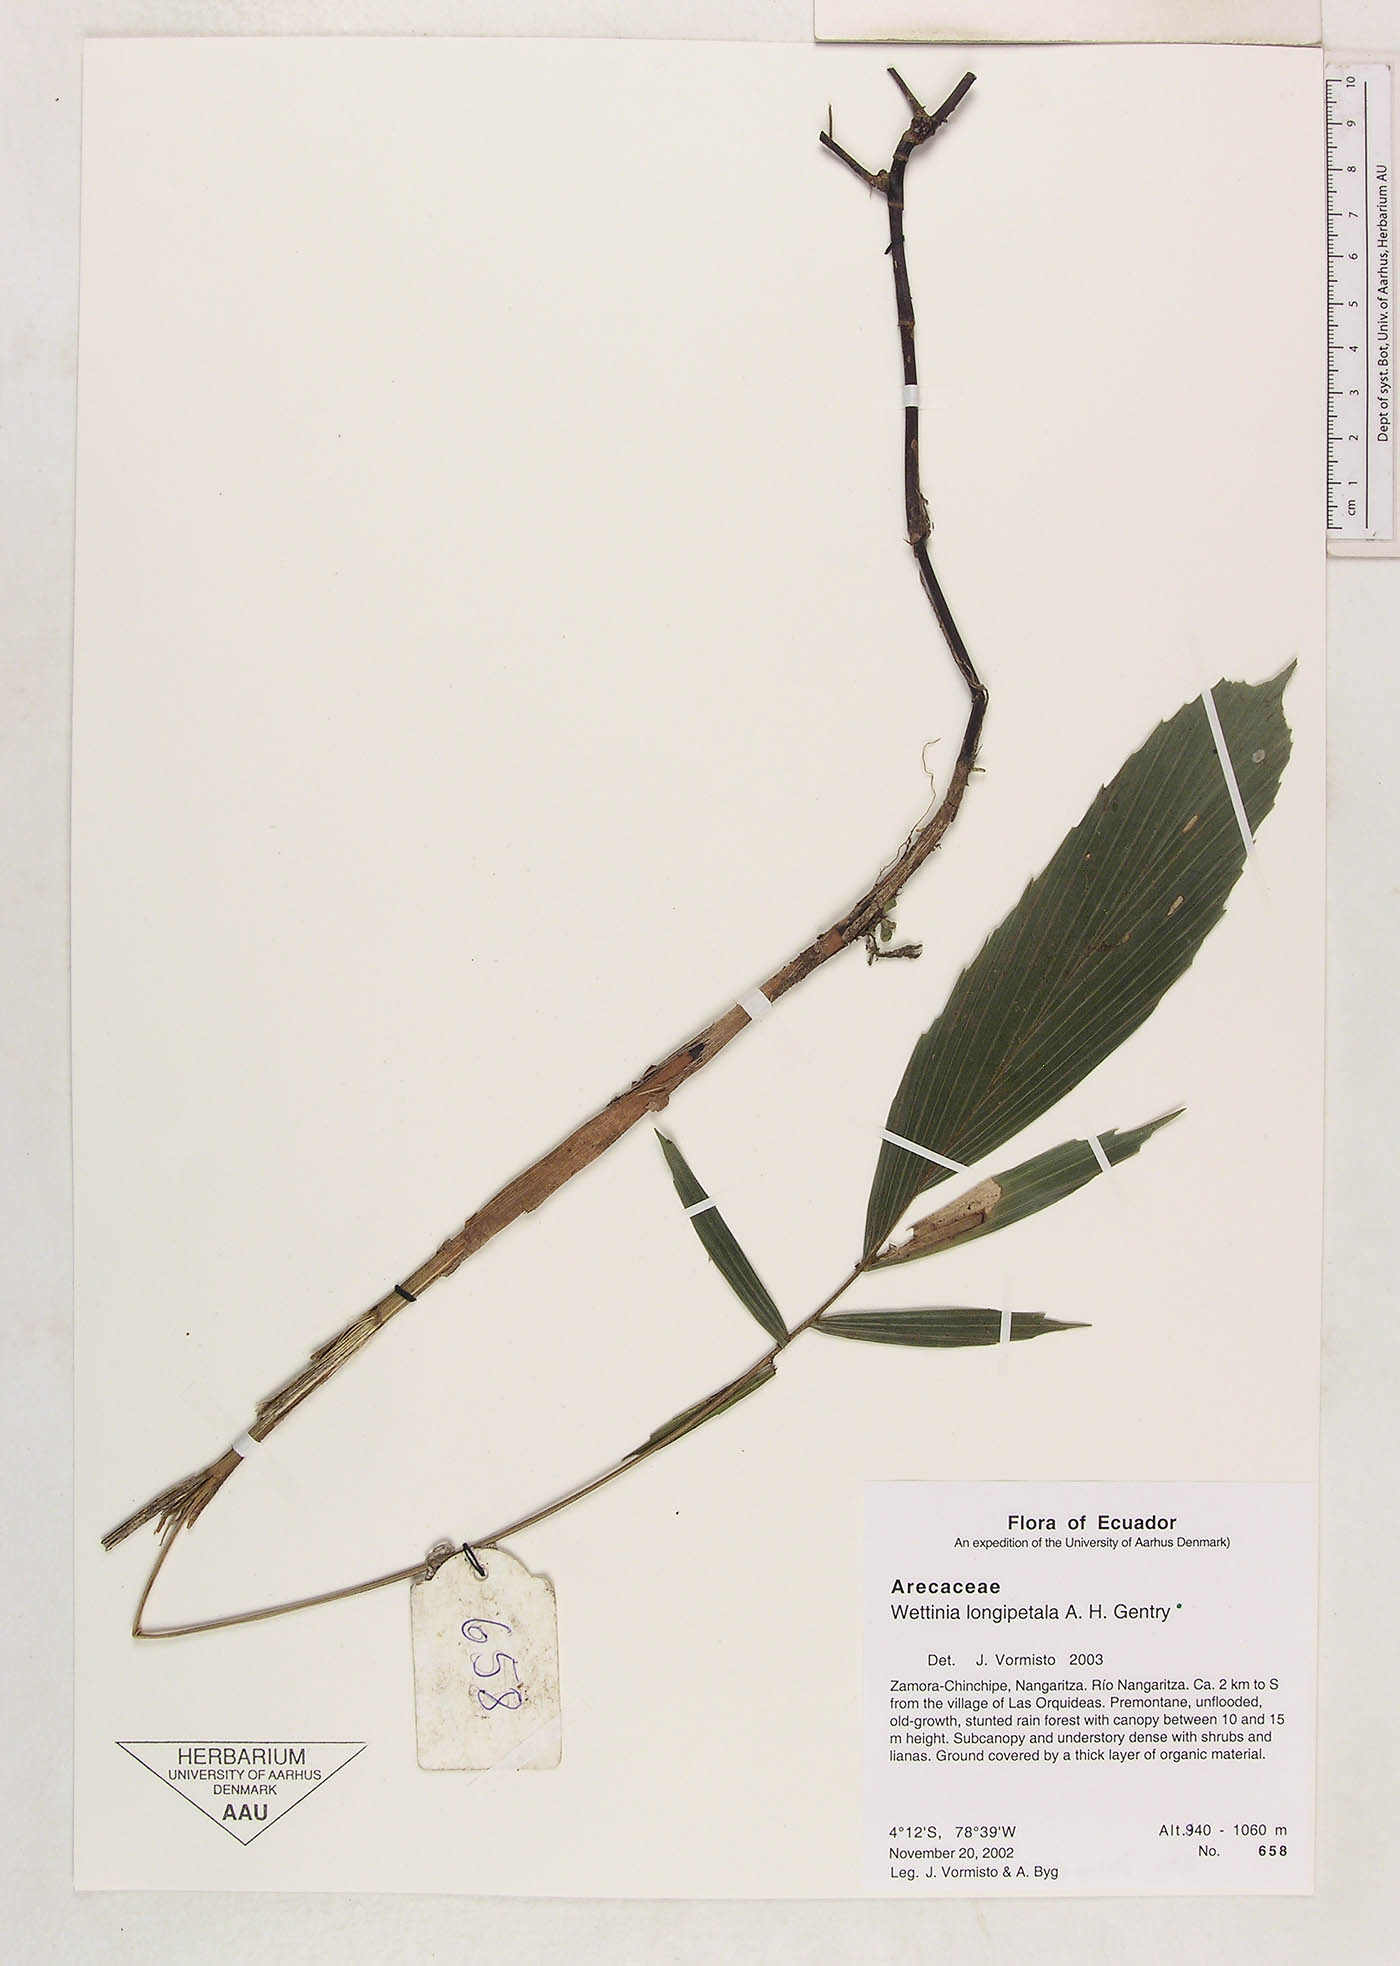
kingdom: Plantae
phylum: Tracheophyta
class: Liliopsida
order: Arecales
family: Arecaceae
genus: Wettinia
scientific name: Wettinia longipetala
